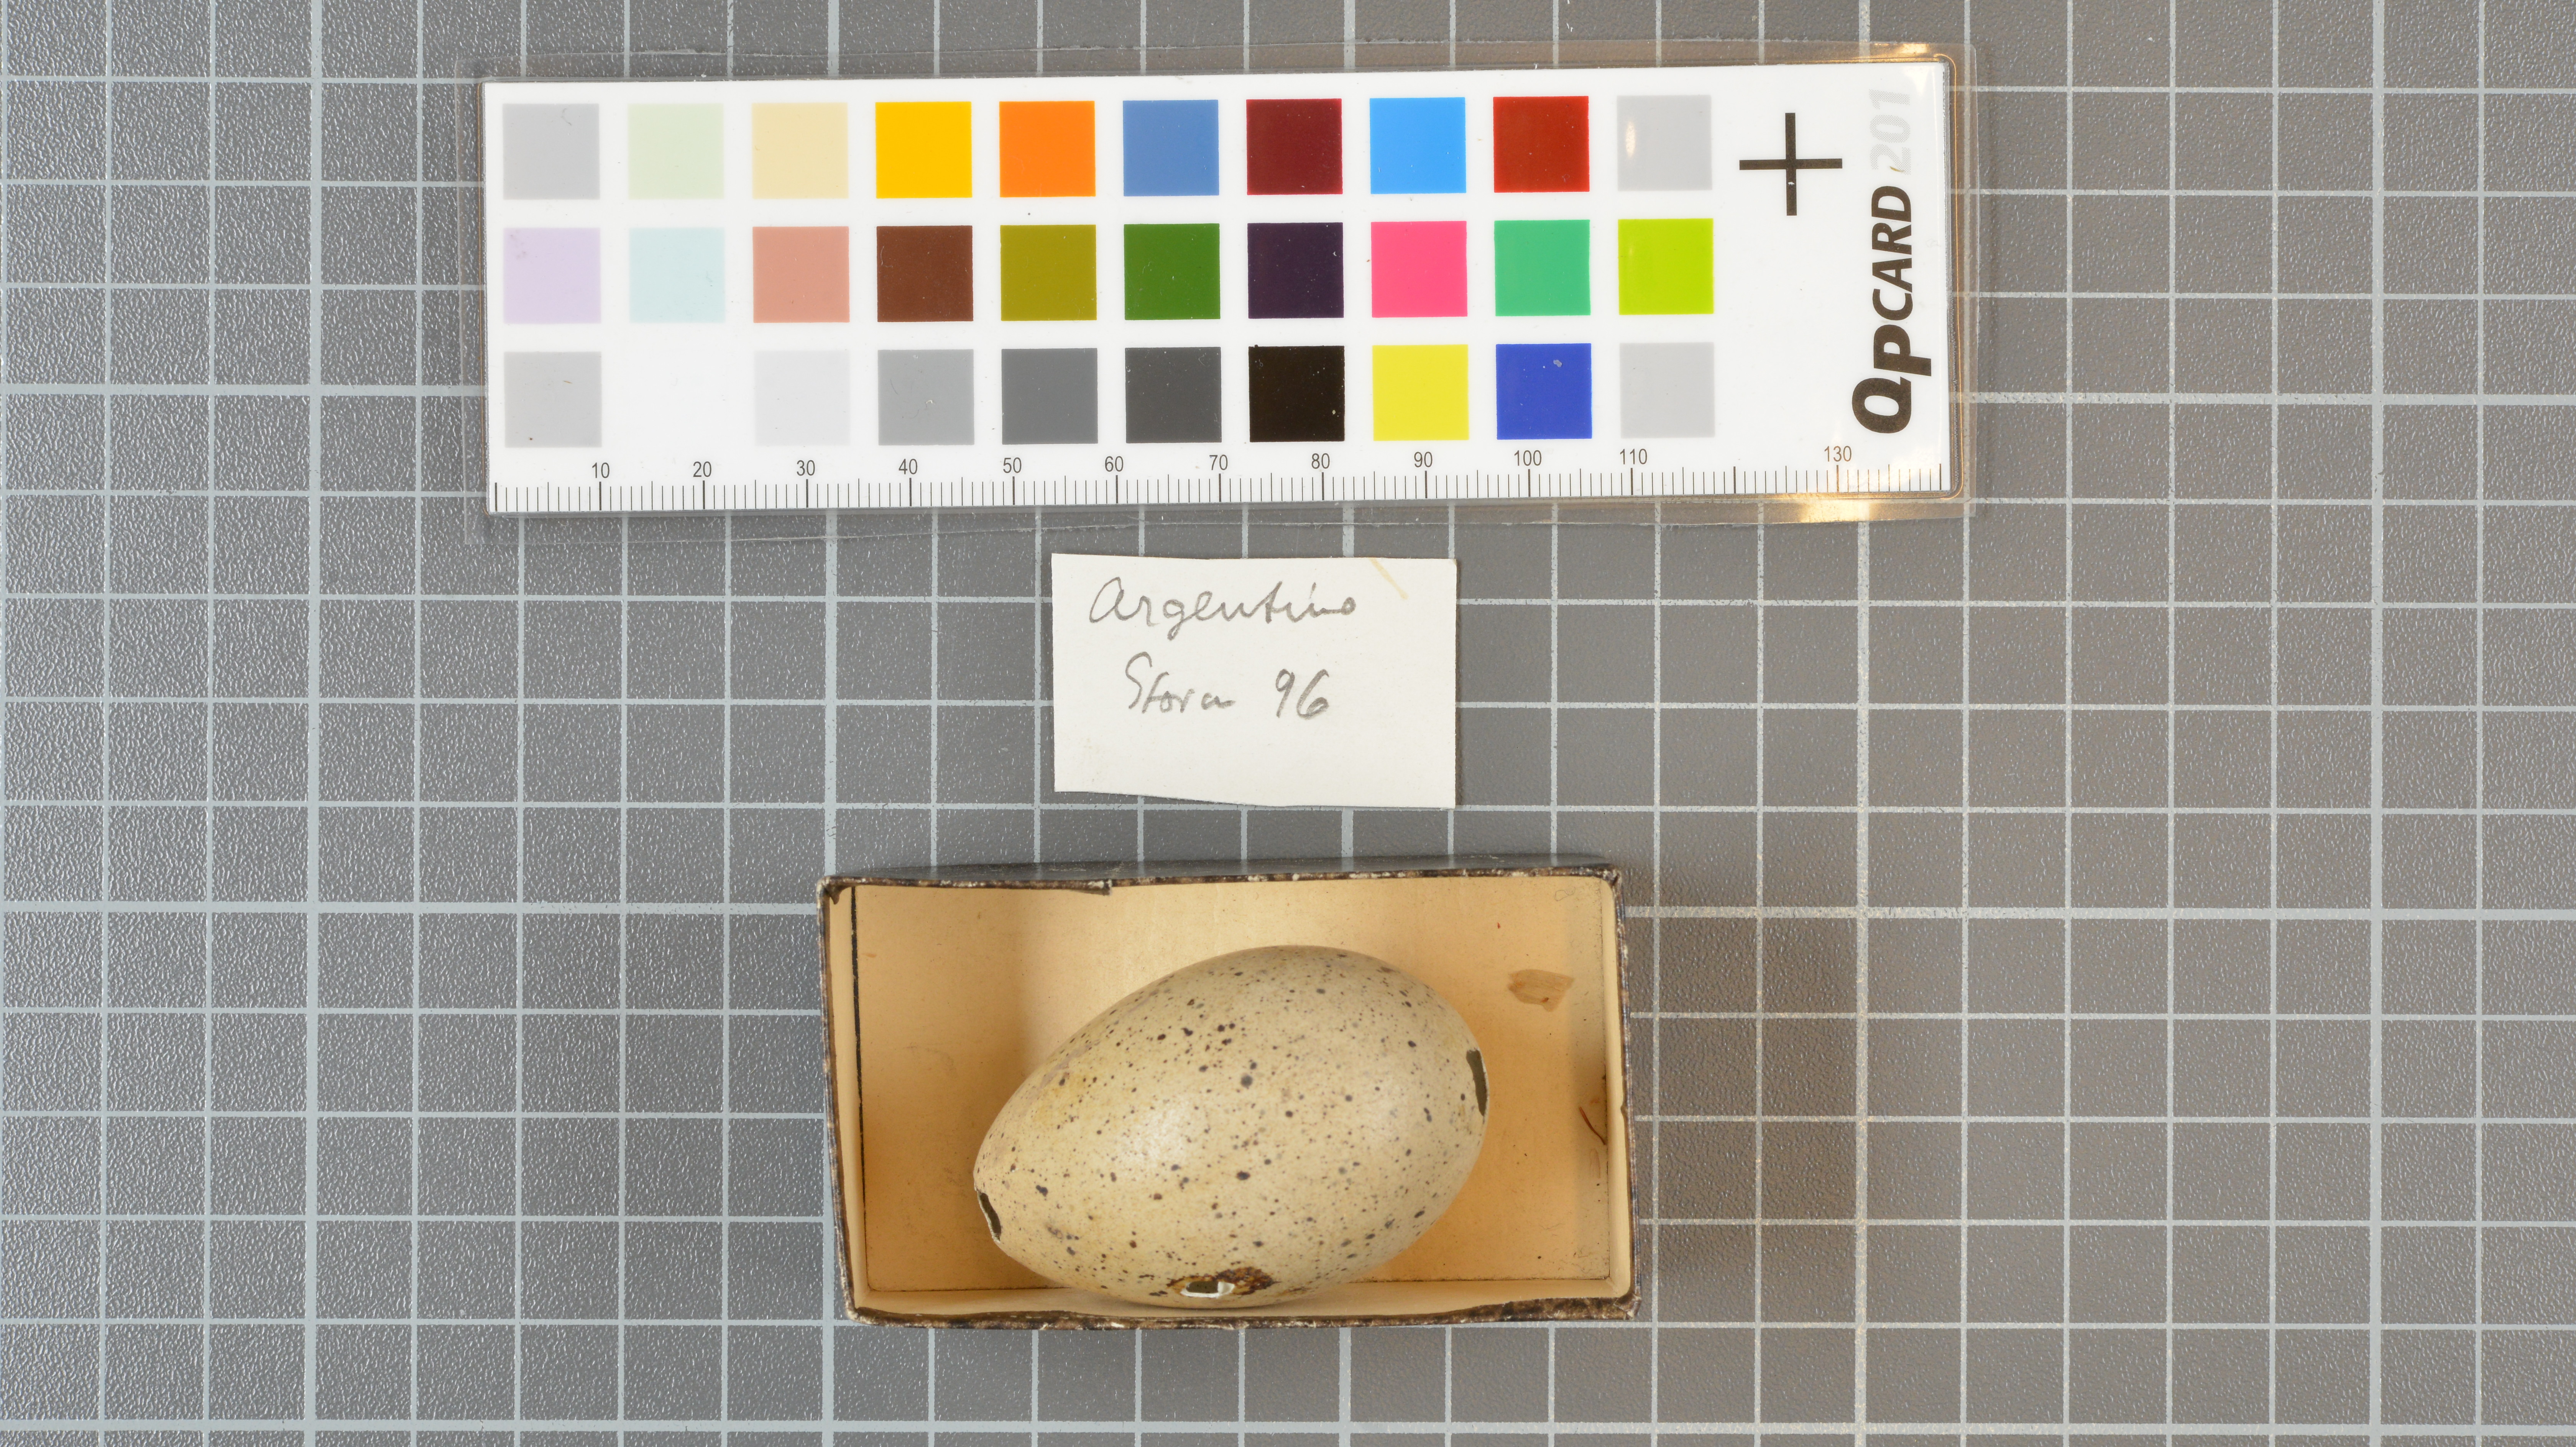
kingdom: Animalia
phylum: Chordata
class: Aves
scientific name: Aves
